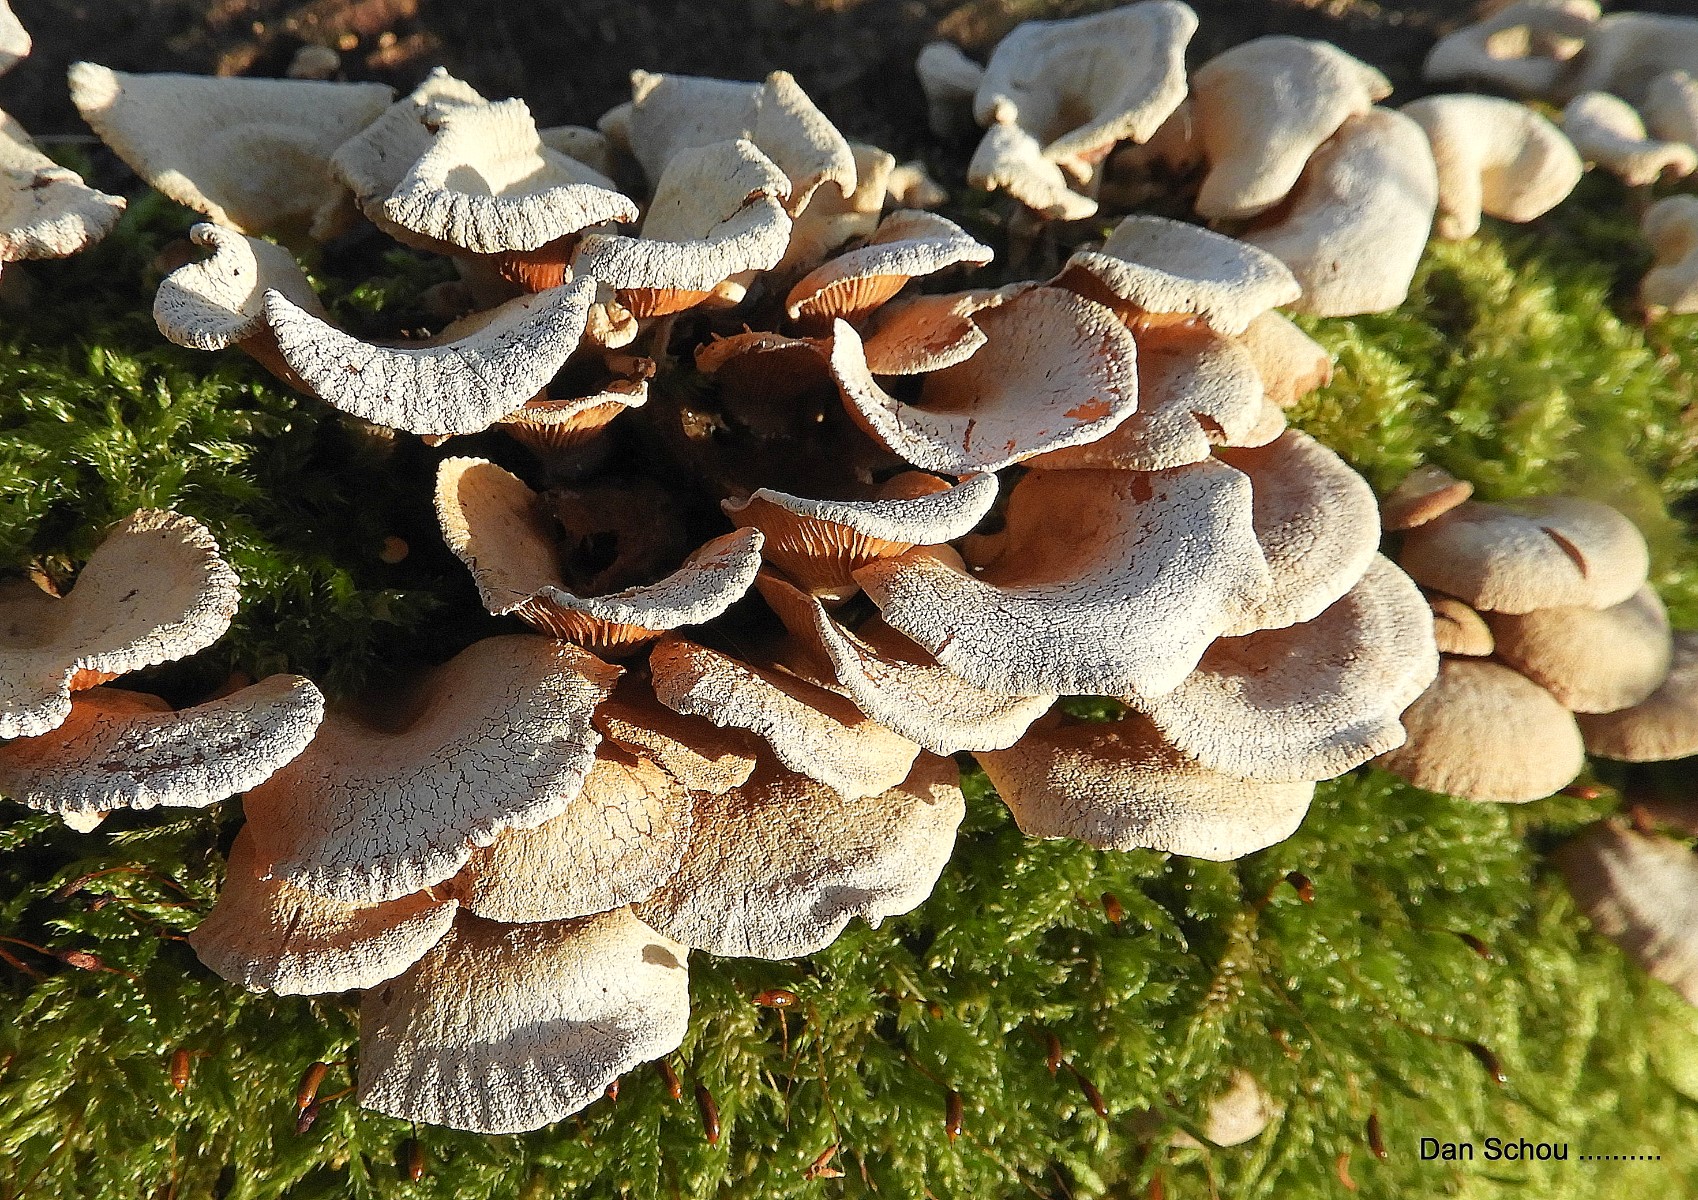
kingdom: Fungi
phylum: Basidiomycota
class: Agaricomycetes
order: Agaricales
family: Mycenaceae
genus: Panellus
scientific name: Panellus stipticus
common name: kliddet epaulethat
